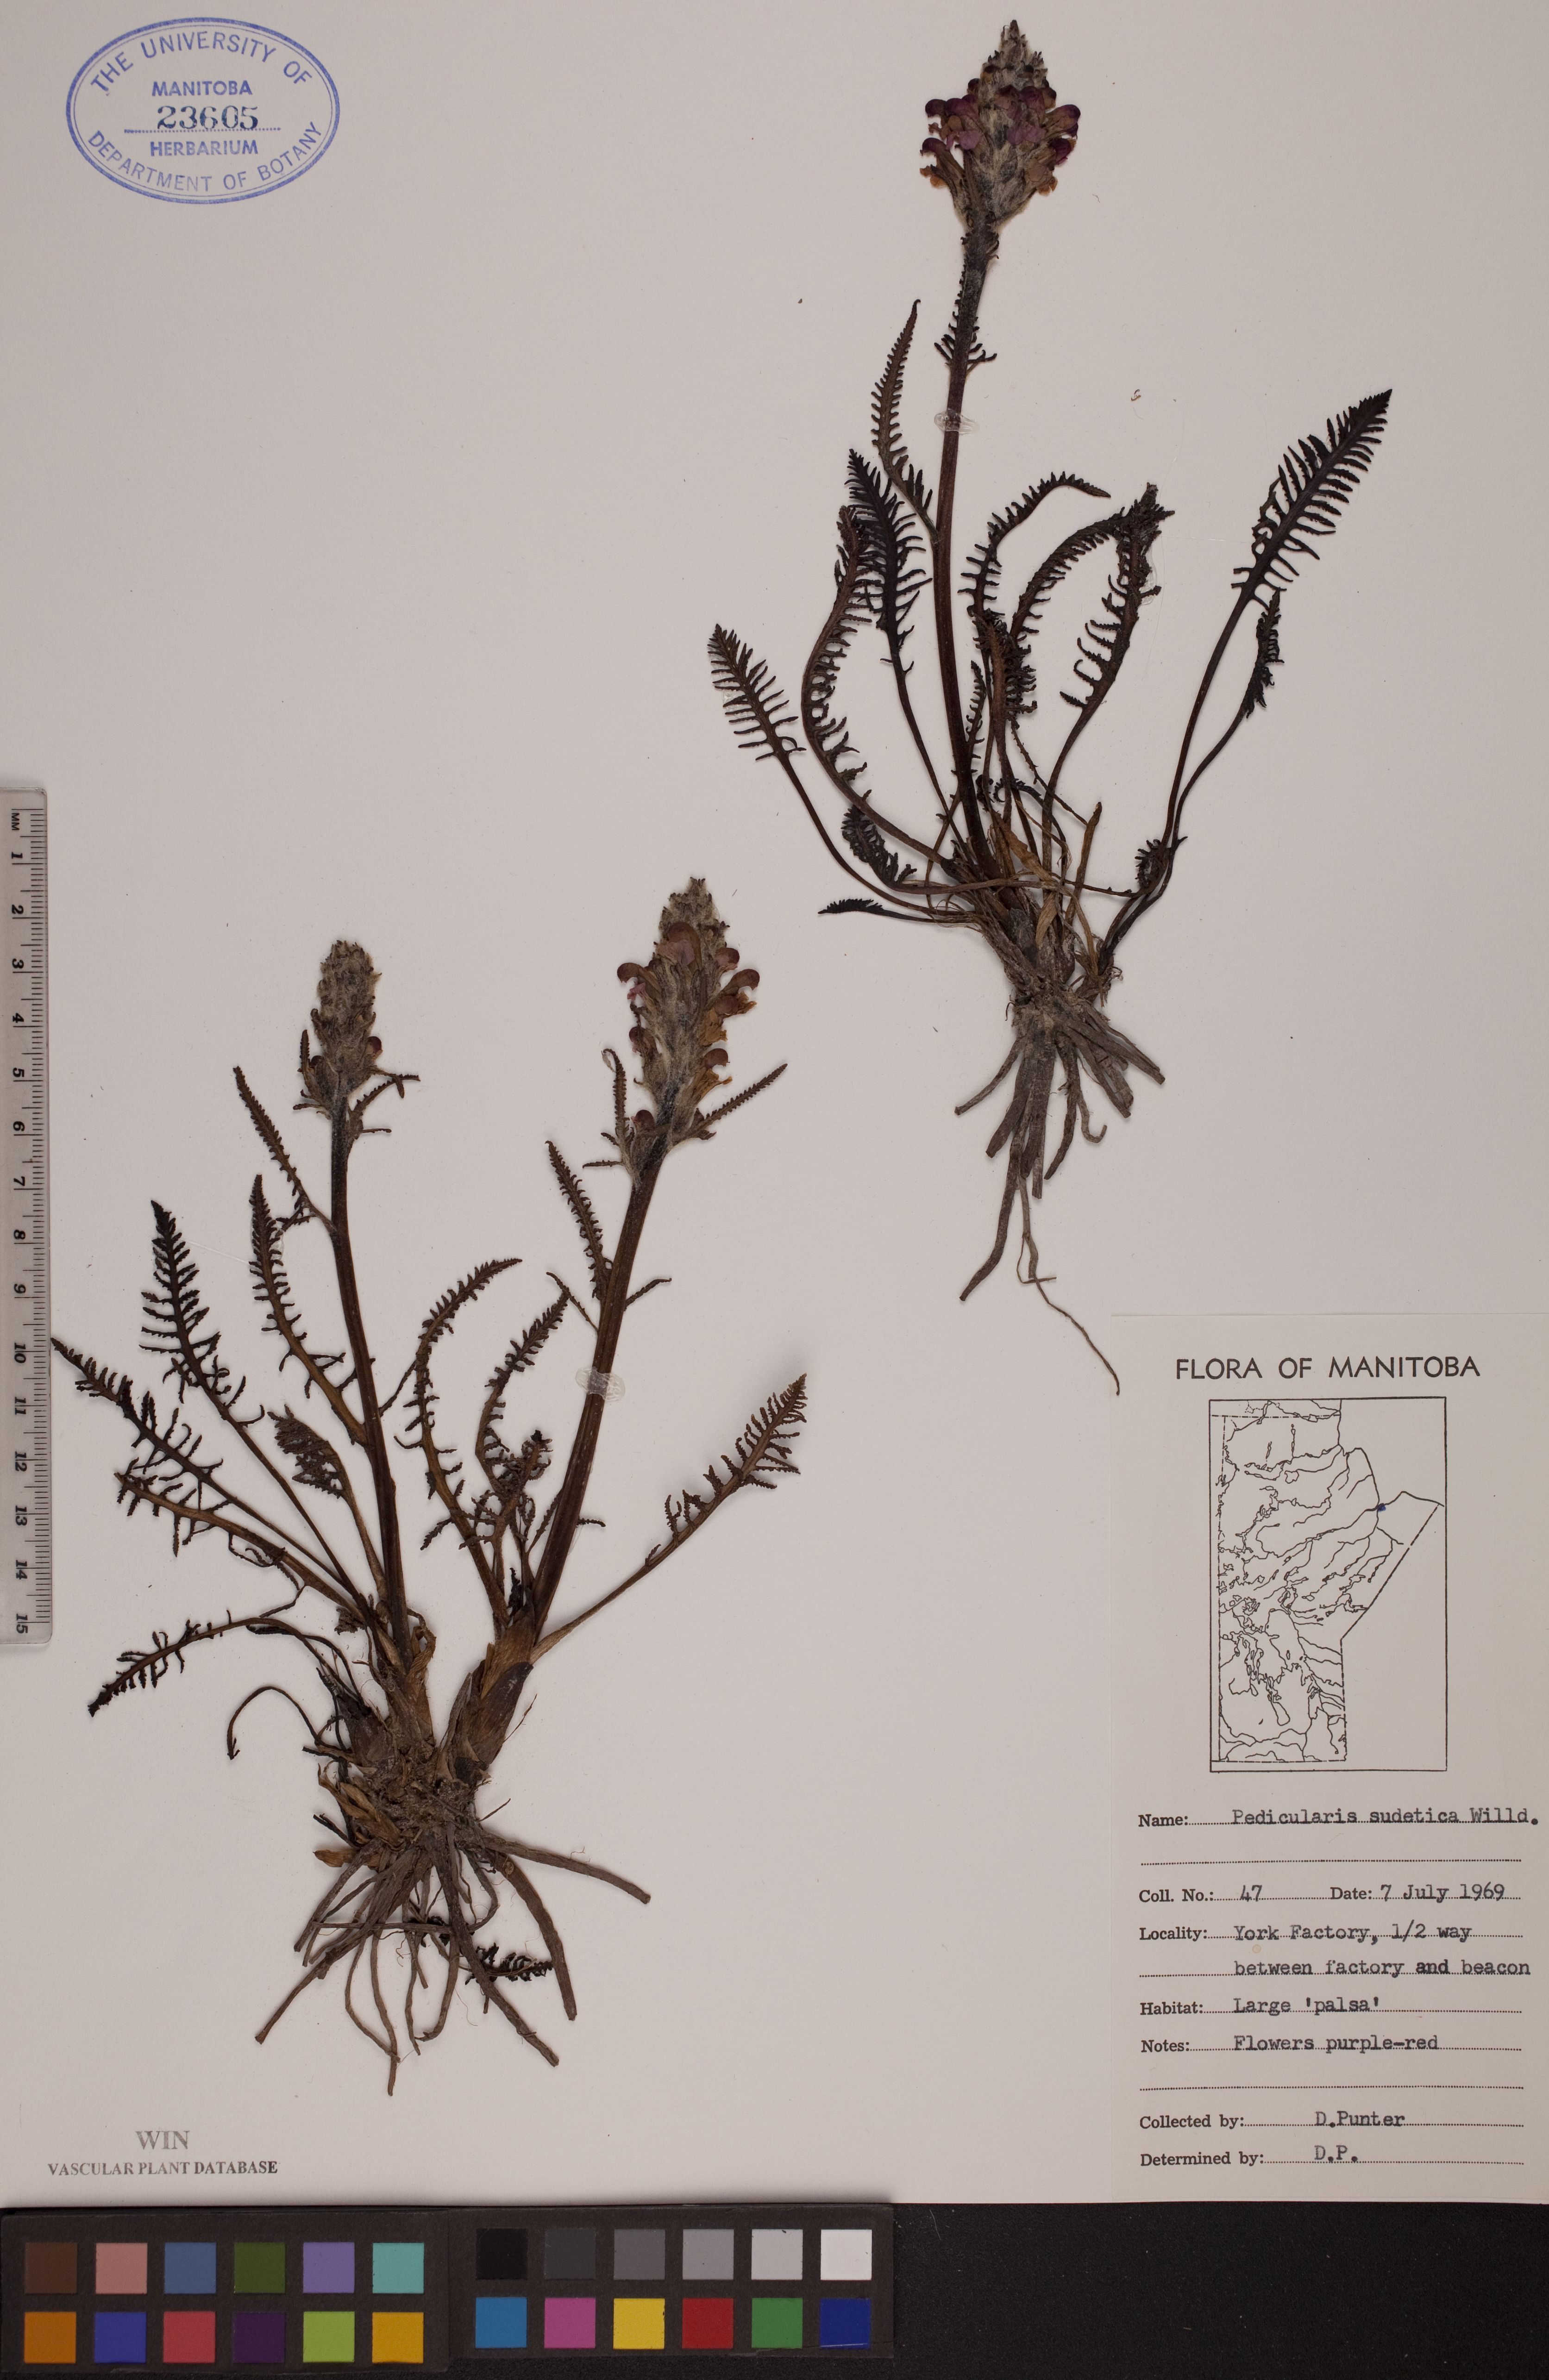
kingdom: Plantae
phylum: Tracheophyta
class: Magnoliopsida
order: Lamiales
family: Orobanchaceae
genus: Pedicularis
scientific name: Pedicularis sudetica
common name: Sudeten lousewort
